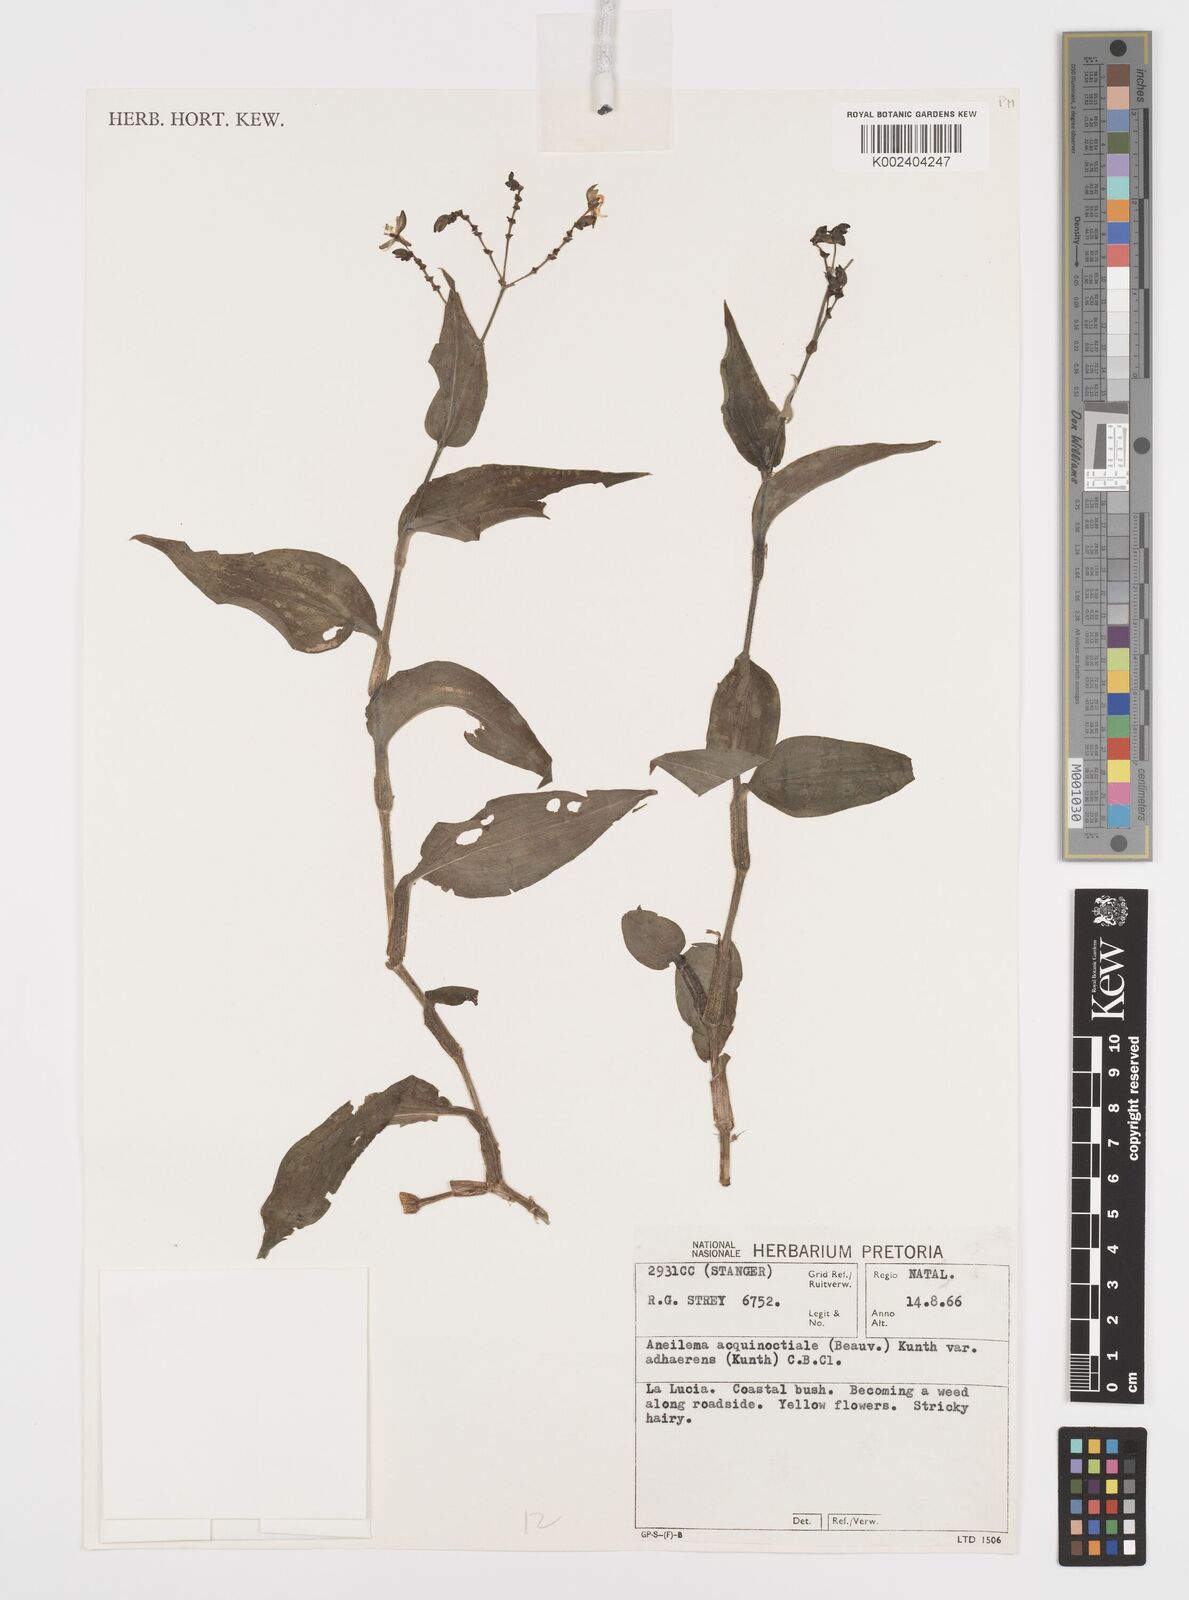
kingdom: Plantae
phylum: Tracheophyta
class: Liliopsida
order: Commelinales
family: Commelinaceae
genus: Aneilema
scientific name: Aneilema aequinoctiale
